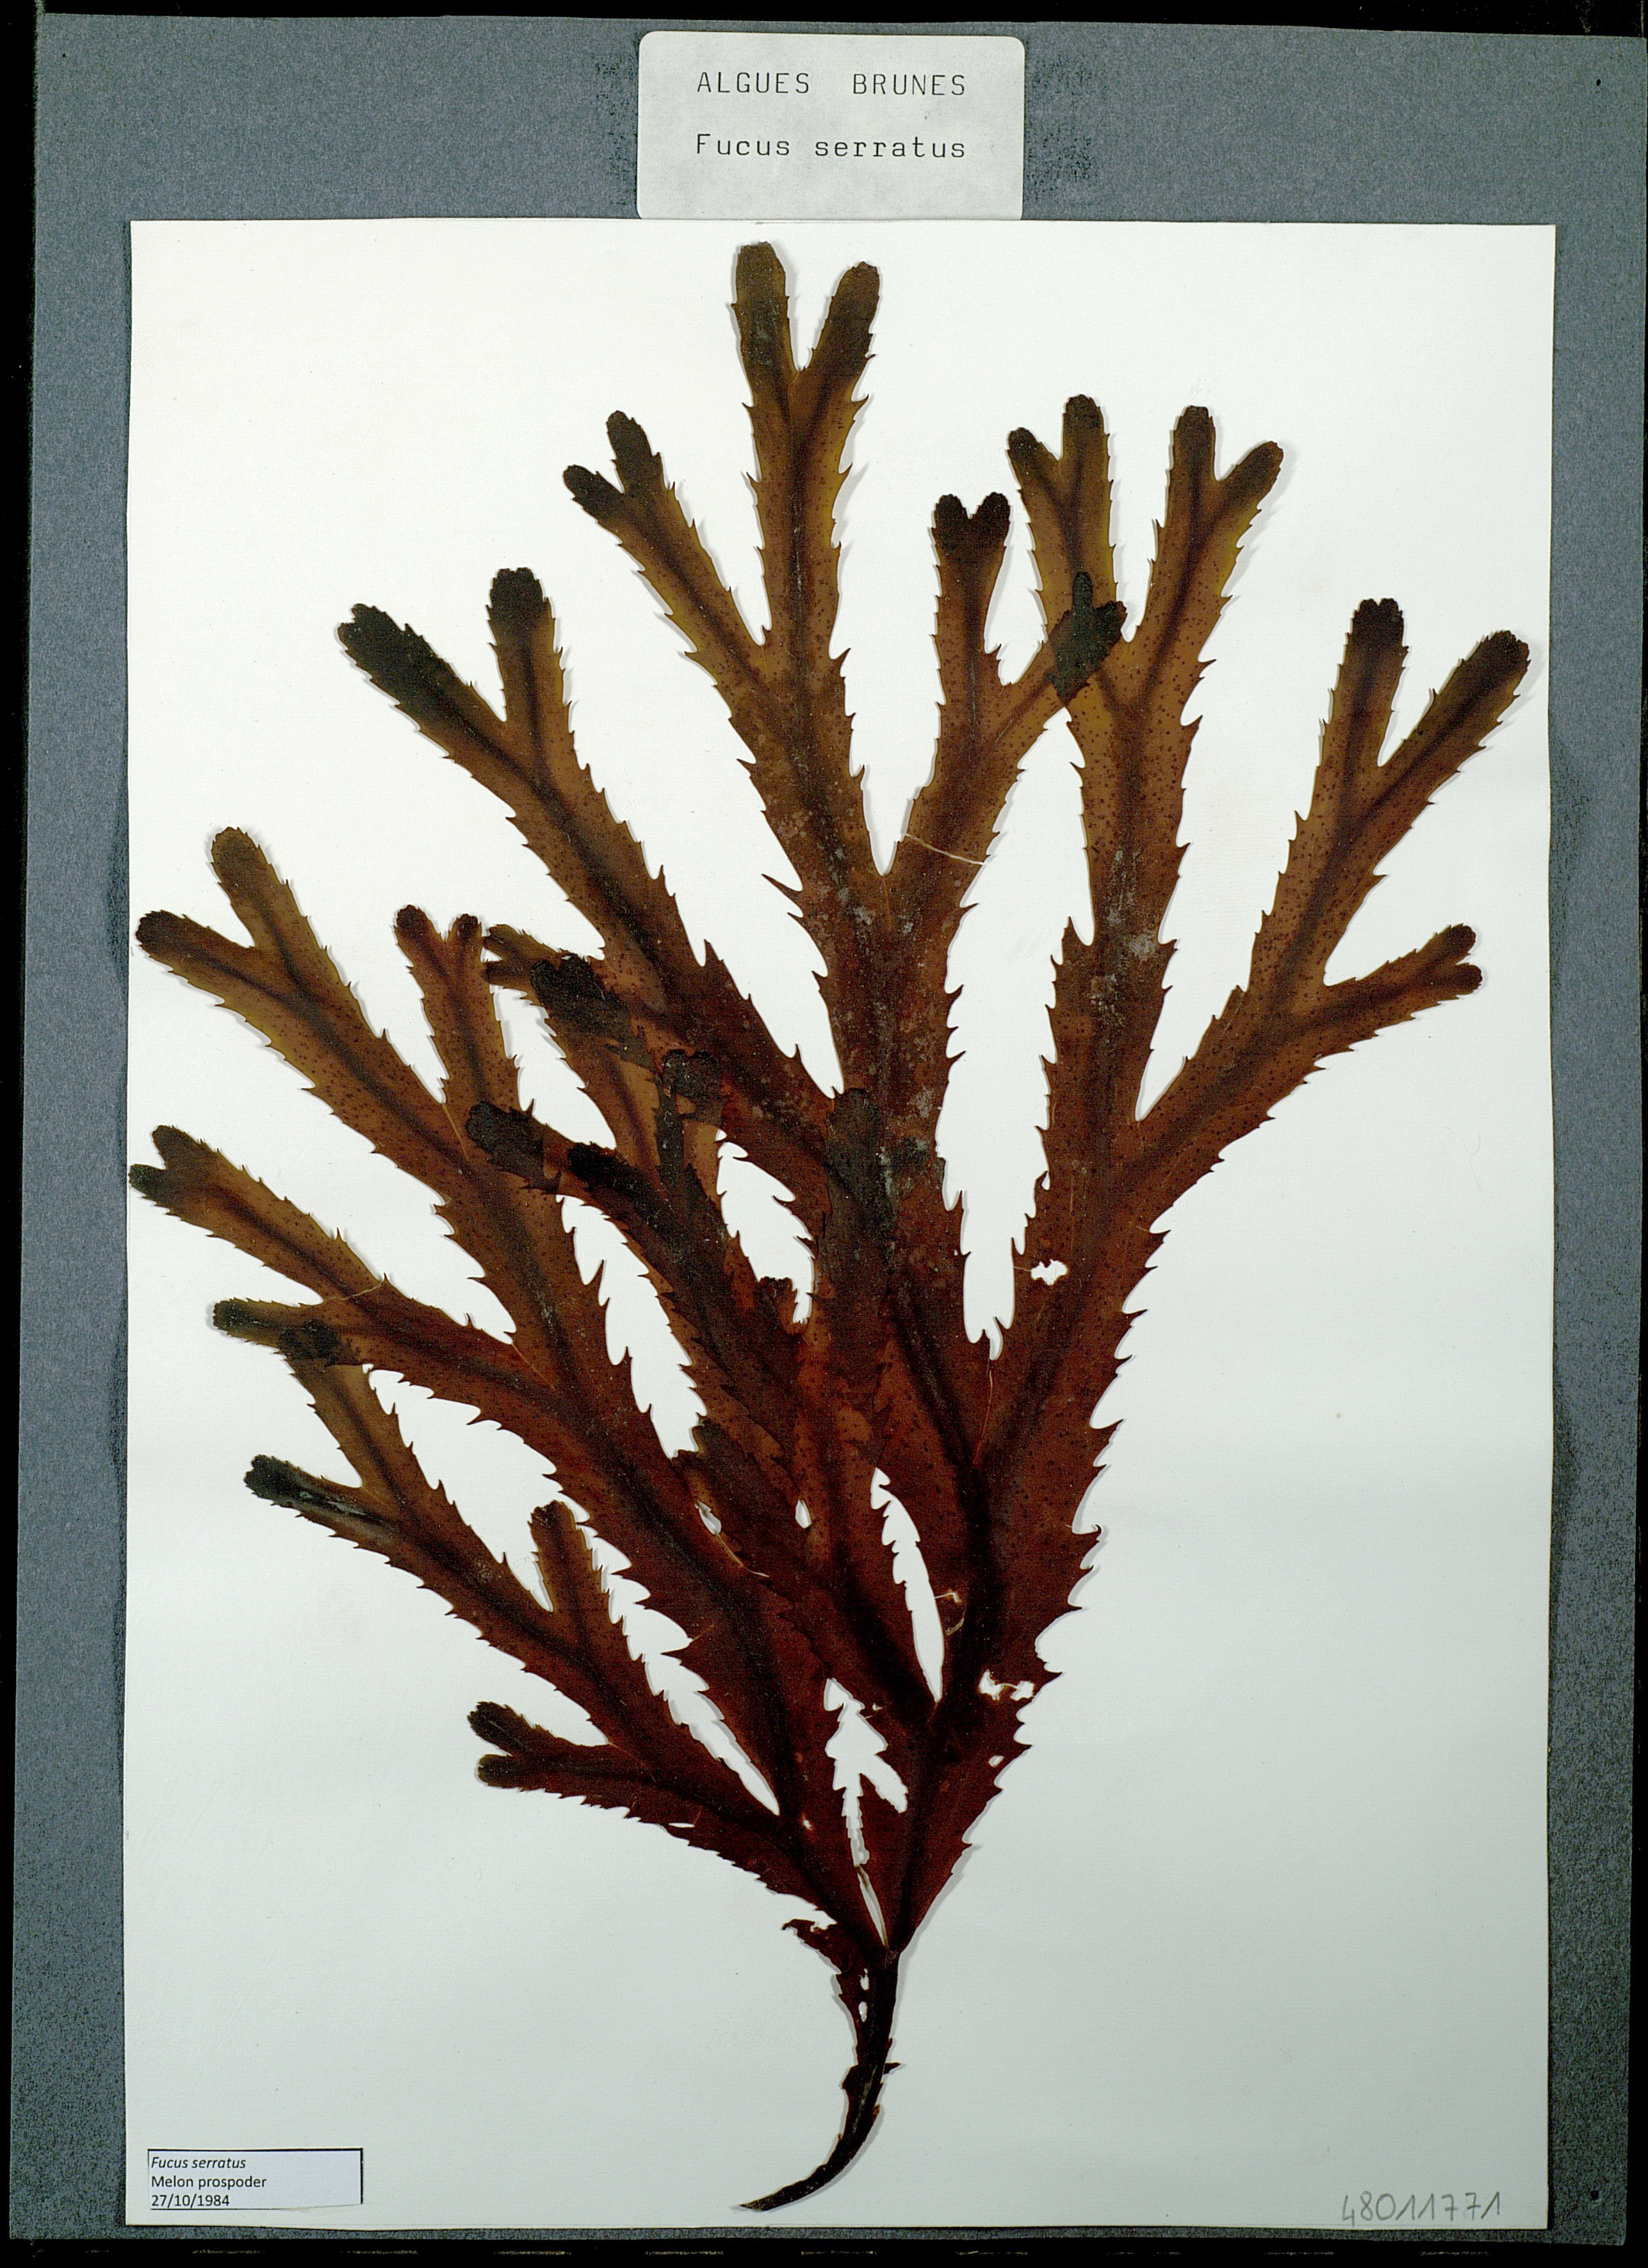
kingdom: Chromista
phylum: Ochrophyta
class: Phaeophyceae
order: Fucales
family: Fucaceae
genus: Fucus
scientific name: Fucus serratus
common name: Toothed wrack
